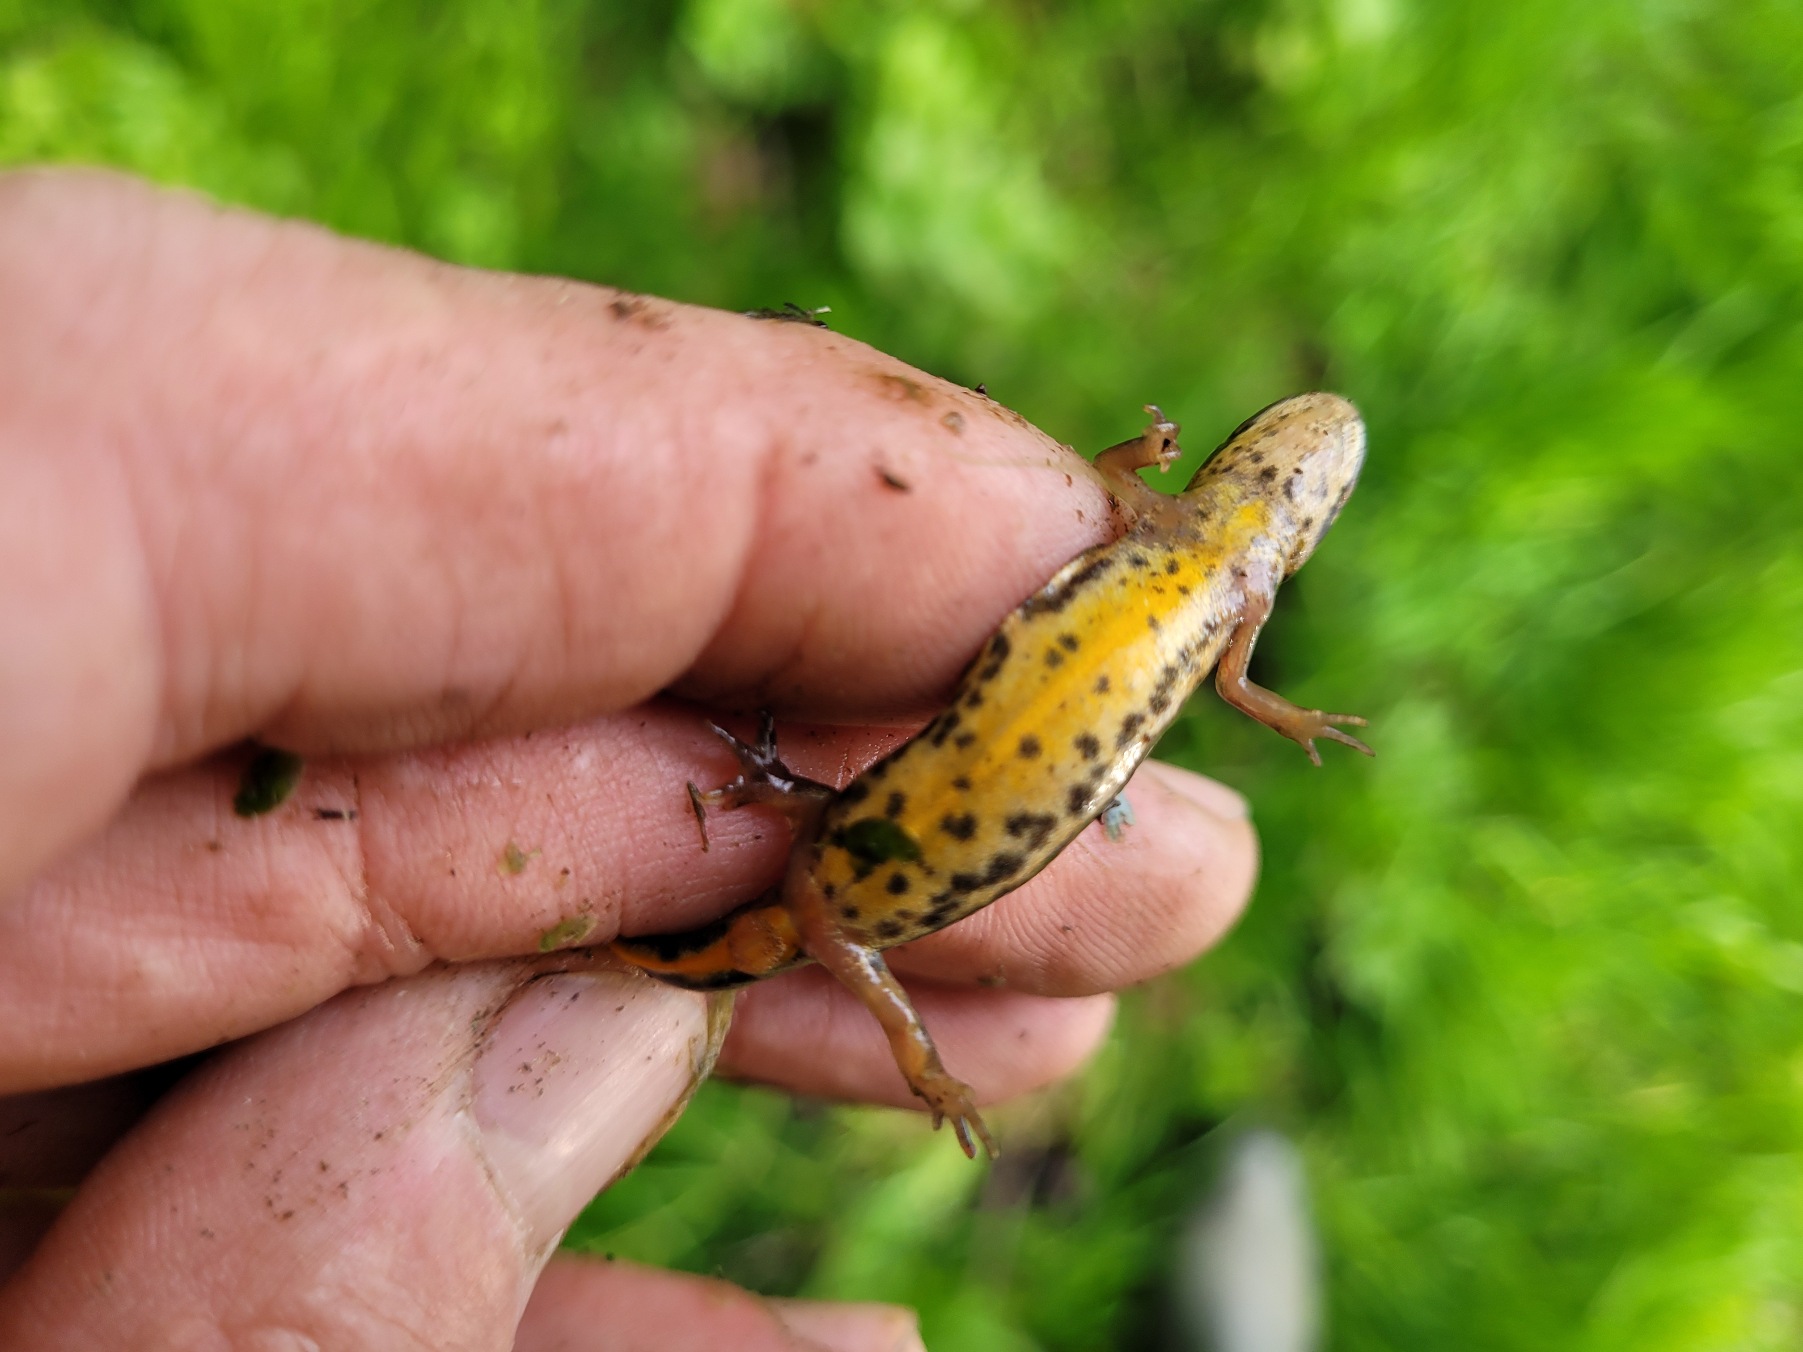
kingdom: Animalia
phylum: Chordata
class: Amphibia
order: Caudata
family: Salamandridae
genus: Lissotriton
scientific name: Lissotriton vulgaris
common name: Lille vandsalamander
